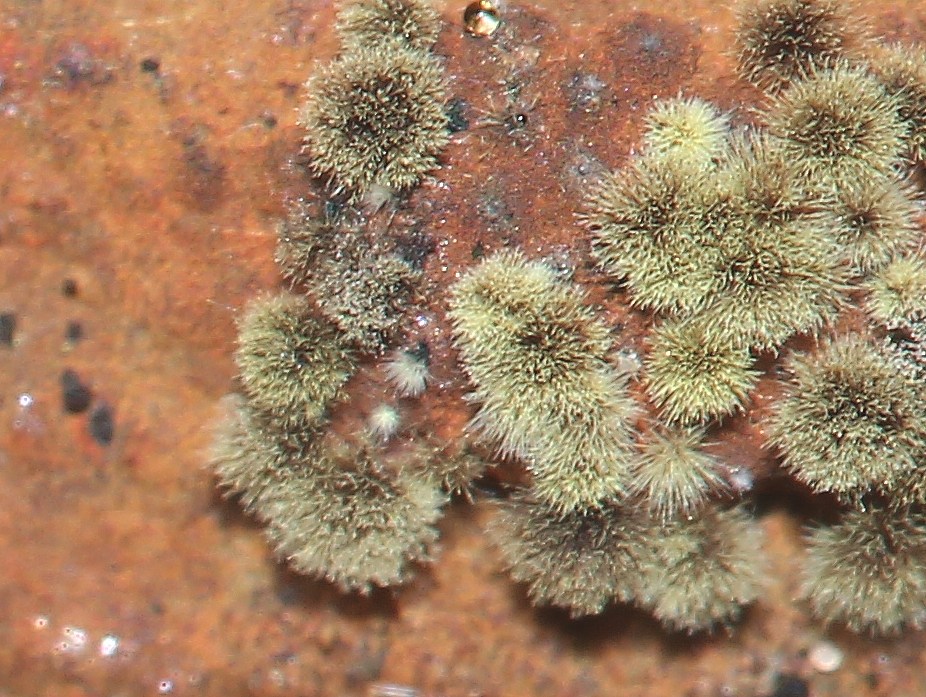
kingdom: Fungi
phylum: Ascomycota
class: Sordariomycetes
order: Xylariales
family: Hypoxylaceae
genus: Hypoxylon
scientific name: Hypoxylon rubiginosum
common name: rustfarvet kulbær
